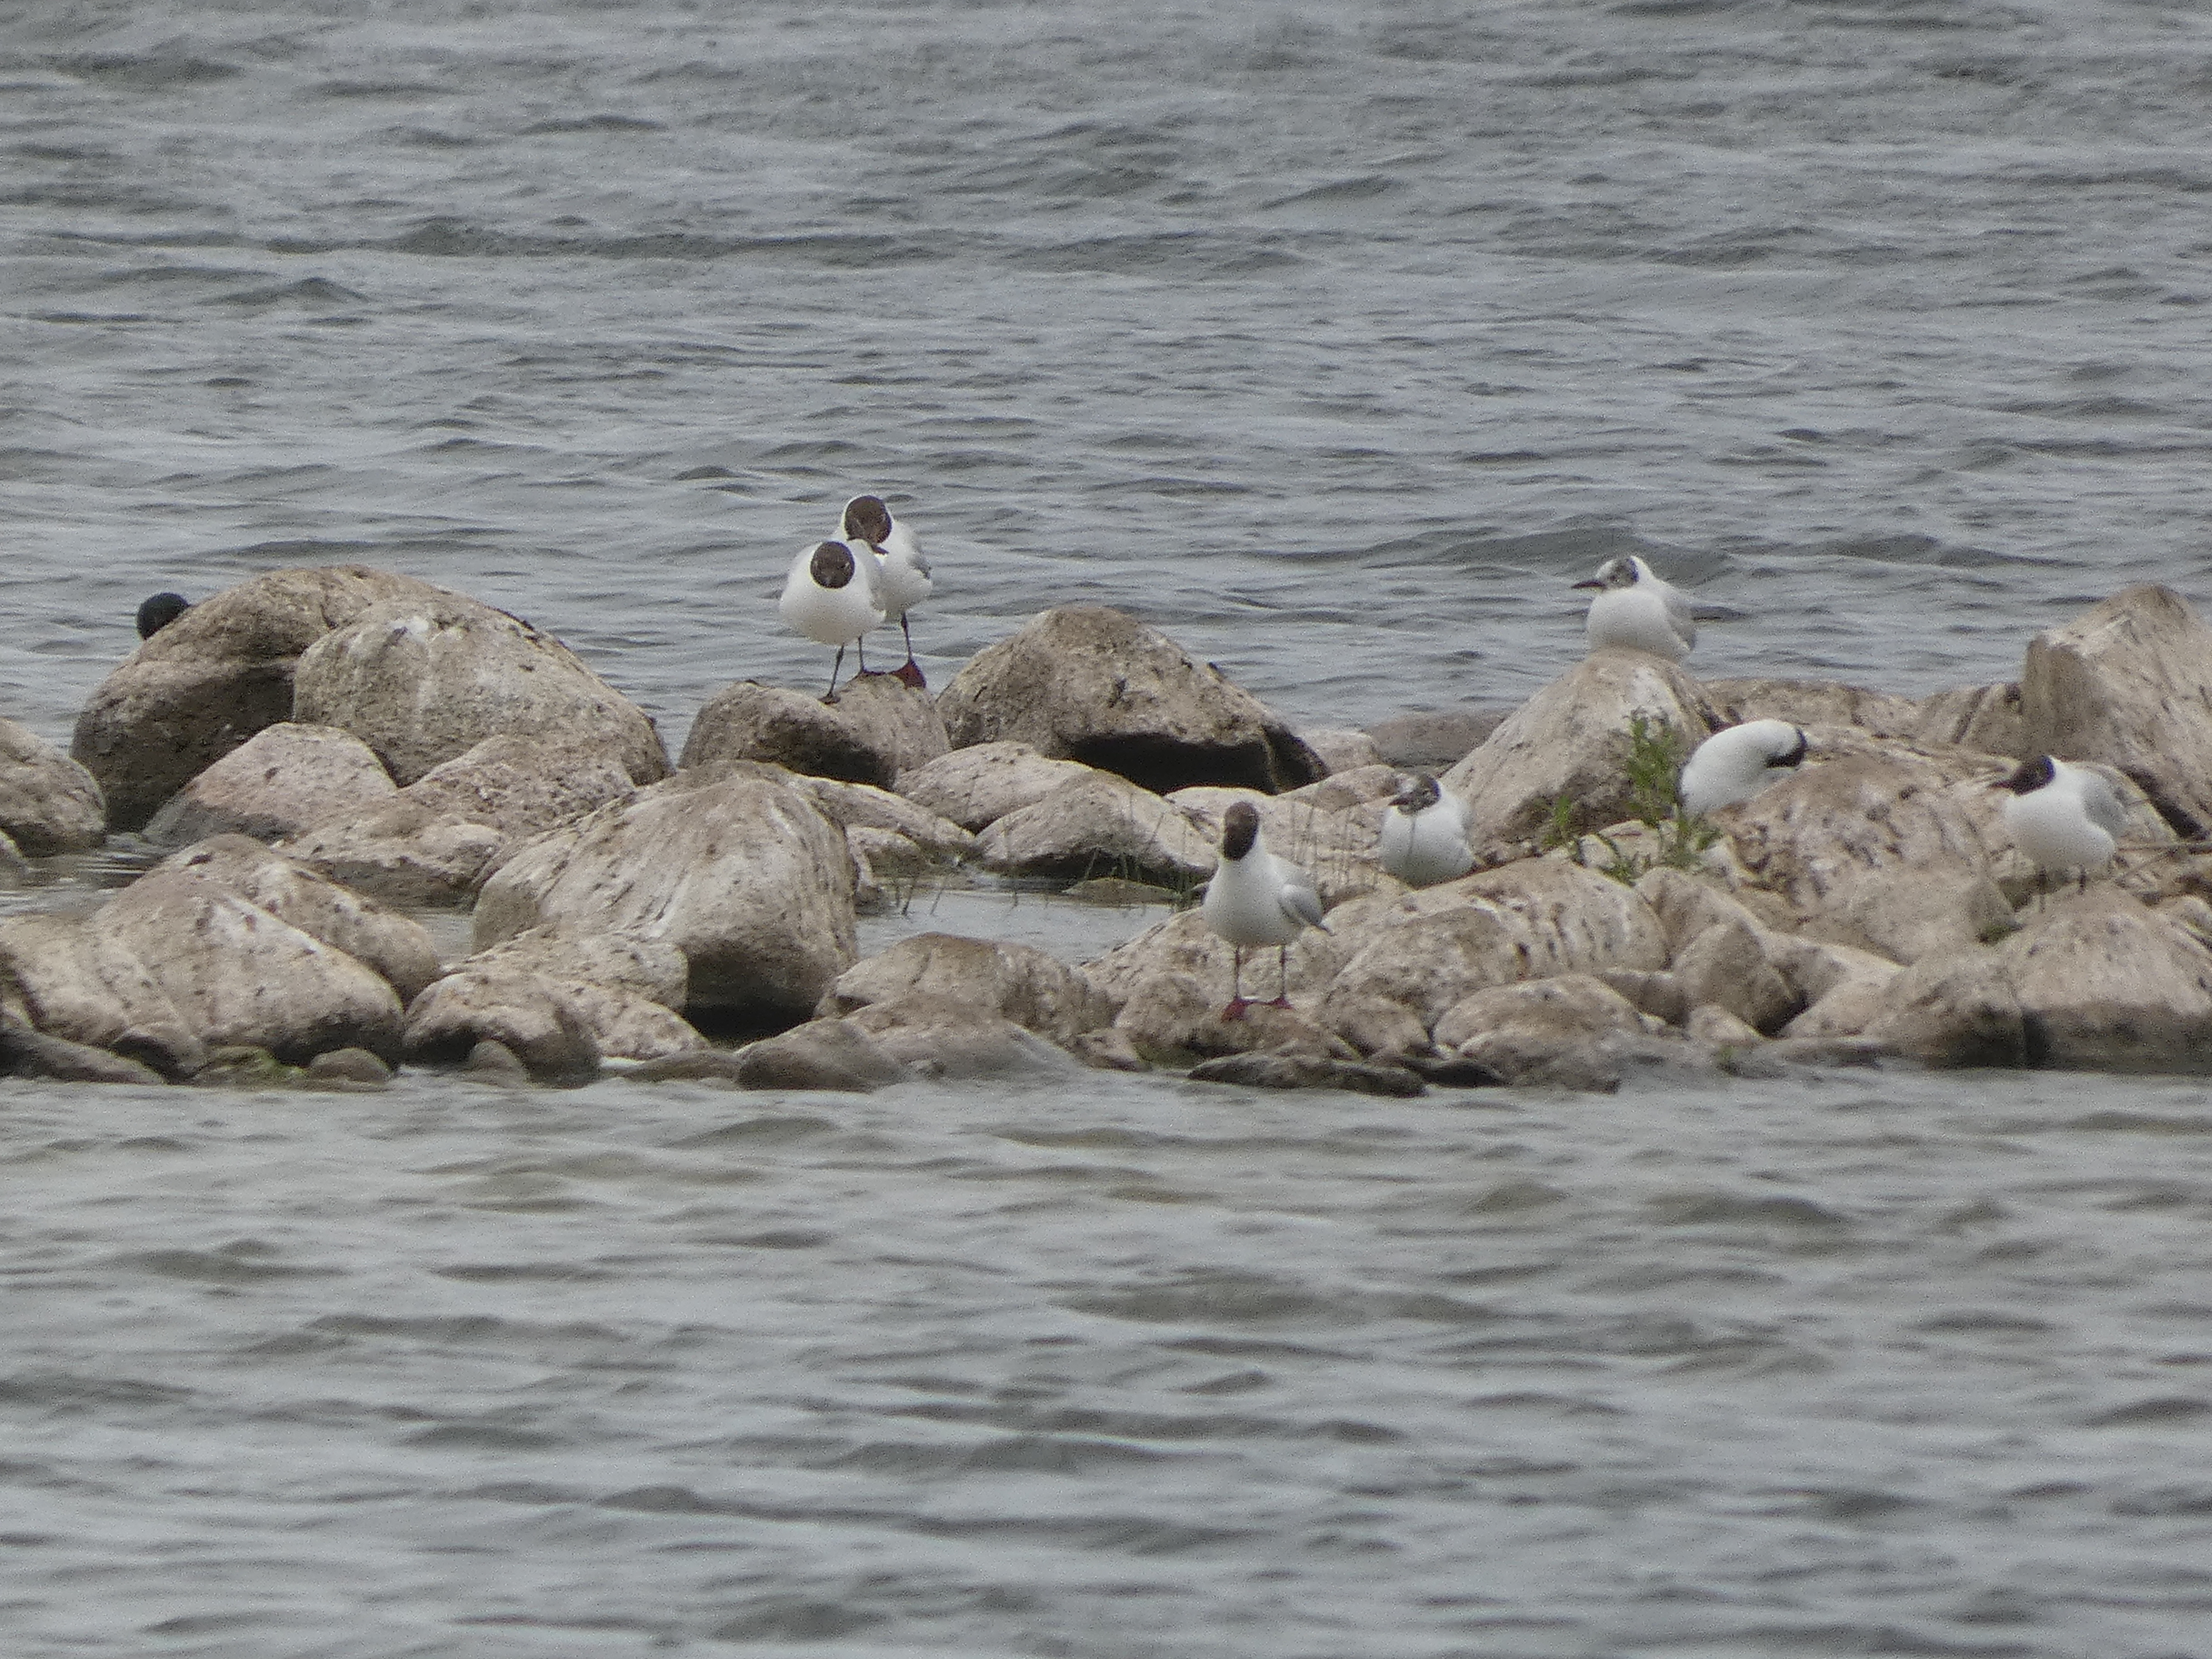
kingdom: Animalia
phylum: Chordata
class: Aves
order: Charadriiformes
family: Laridae
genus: Chroicocephalus
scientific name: Chroicocephalus ridibundus
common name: Hættemåge
